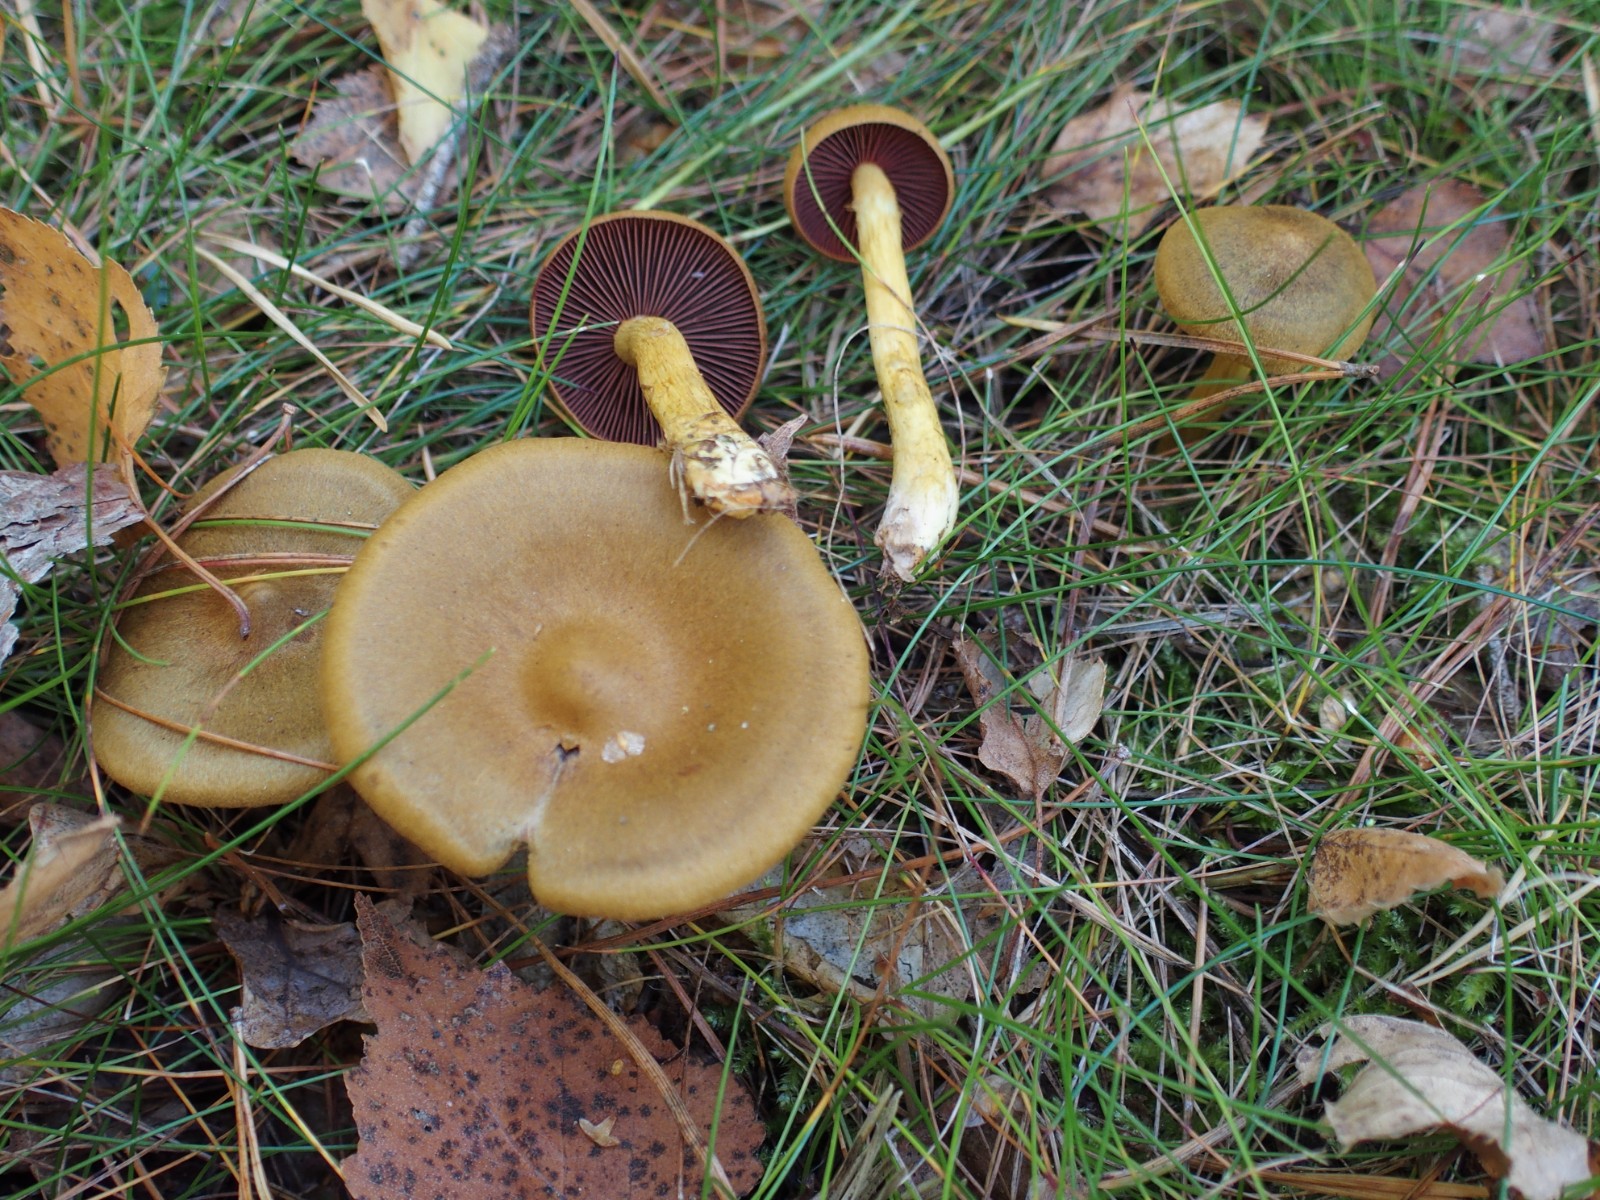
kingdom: Fungi
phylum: Basidiomycota
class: Agaricomycetes
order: Agaricales
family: Cortinariaceae
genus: Cortinarius
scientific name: Cortinarius
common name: cinnoberbladet slørhat
